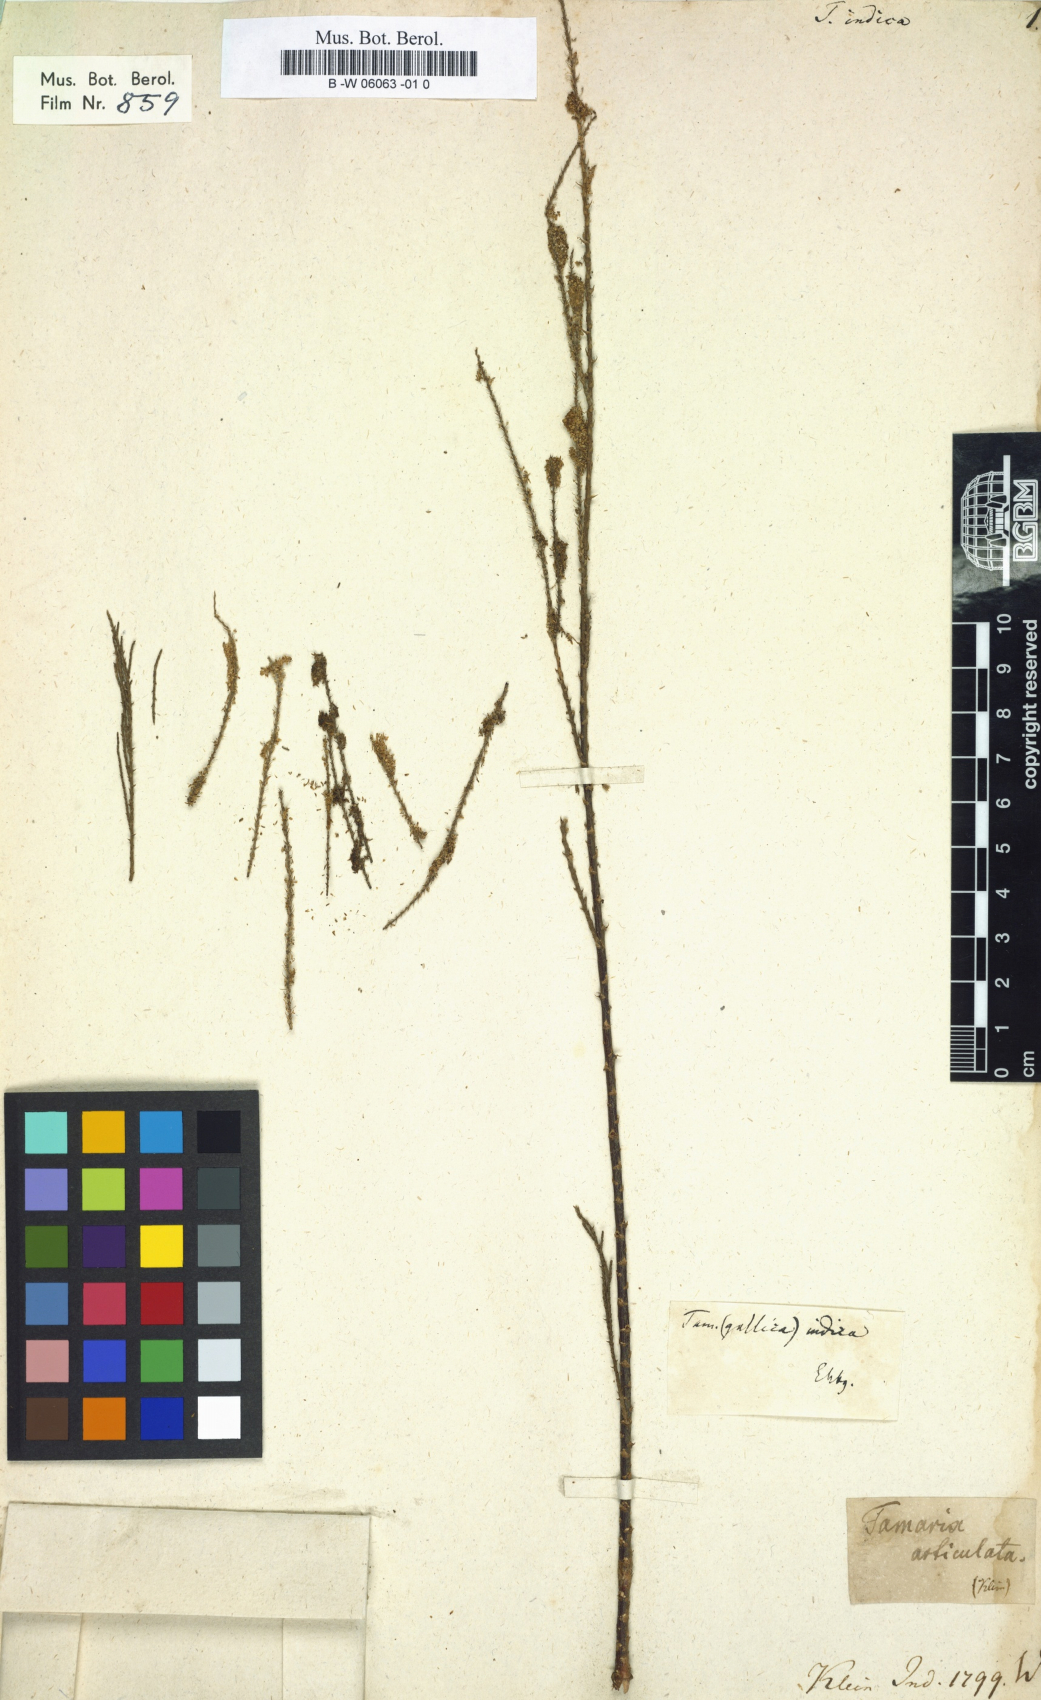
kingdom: Plantae
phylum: Tracheophyta
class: Magnoliopsida
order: Caryophyllales
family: Tamaricaceae
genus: Tamarix
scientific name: Tamarix indica
